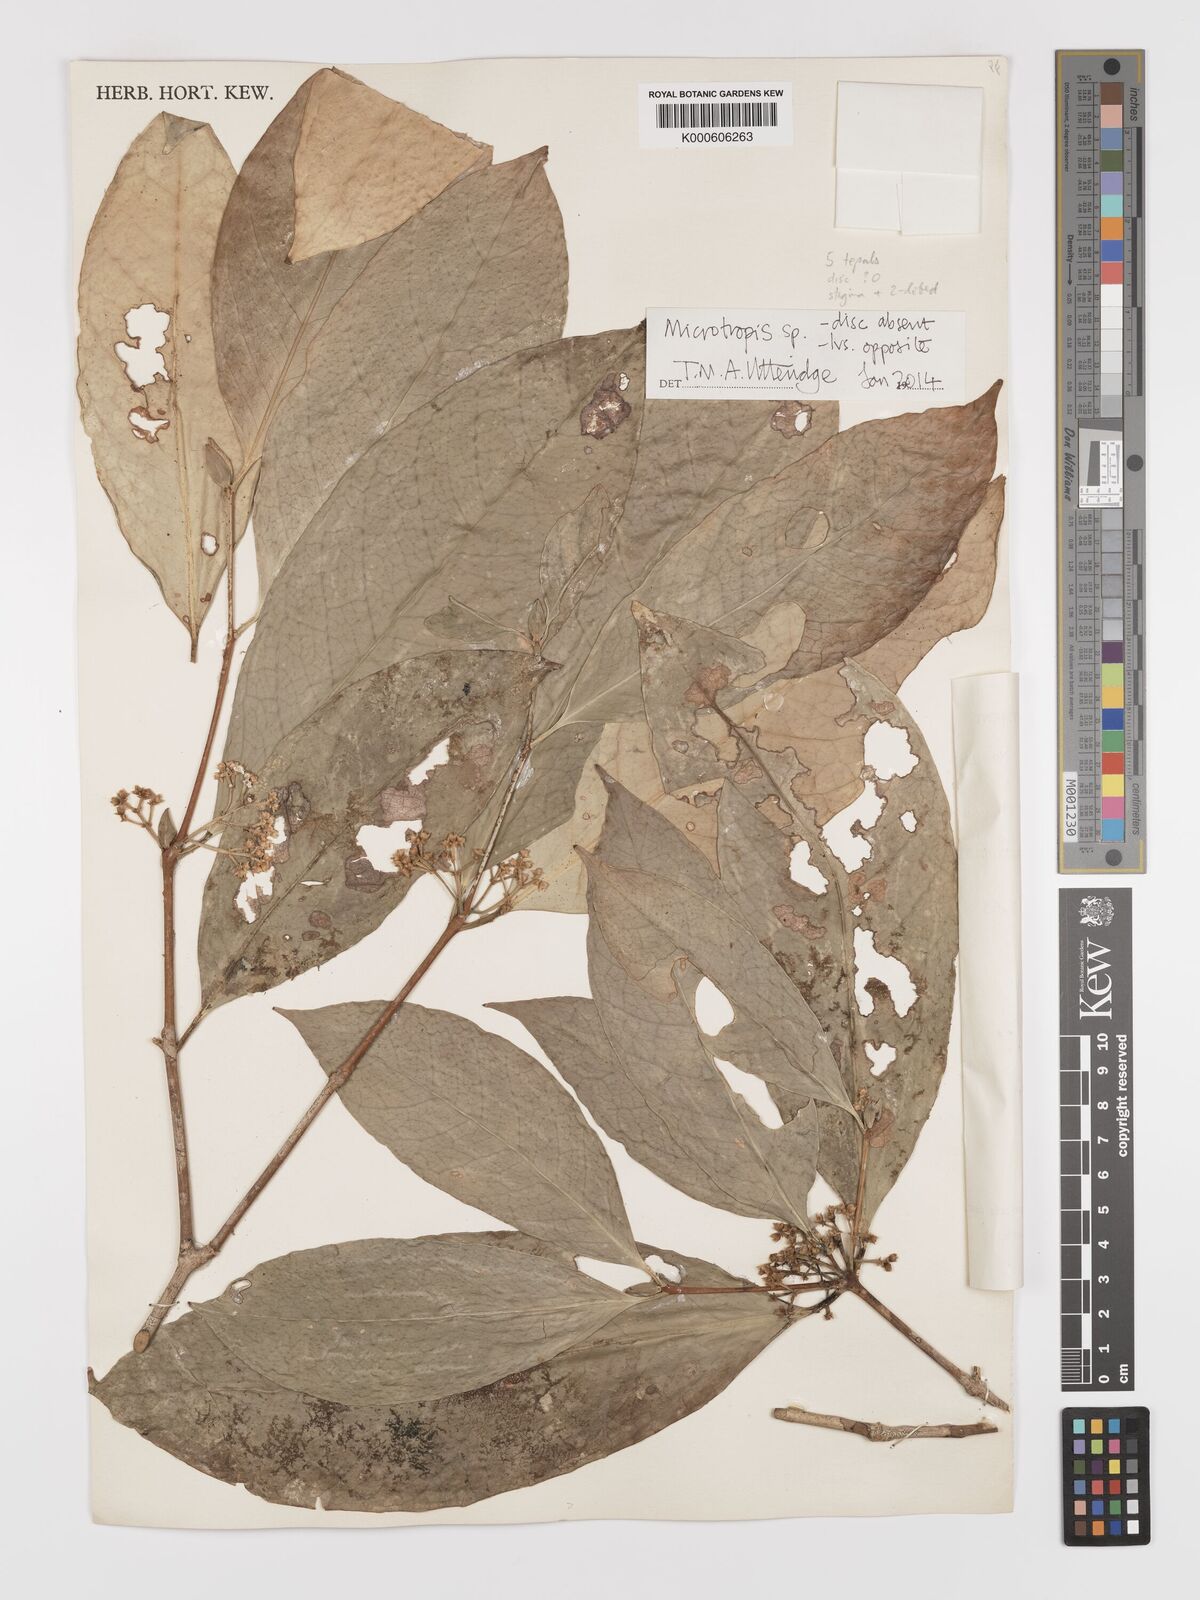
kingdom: Plantae
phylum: Tracheophyta
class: Magnoliopsida
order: Celastrales
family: Celastraceae
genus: Microtropis
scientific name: Microtropis
